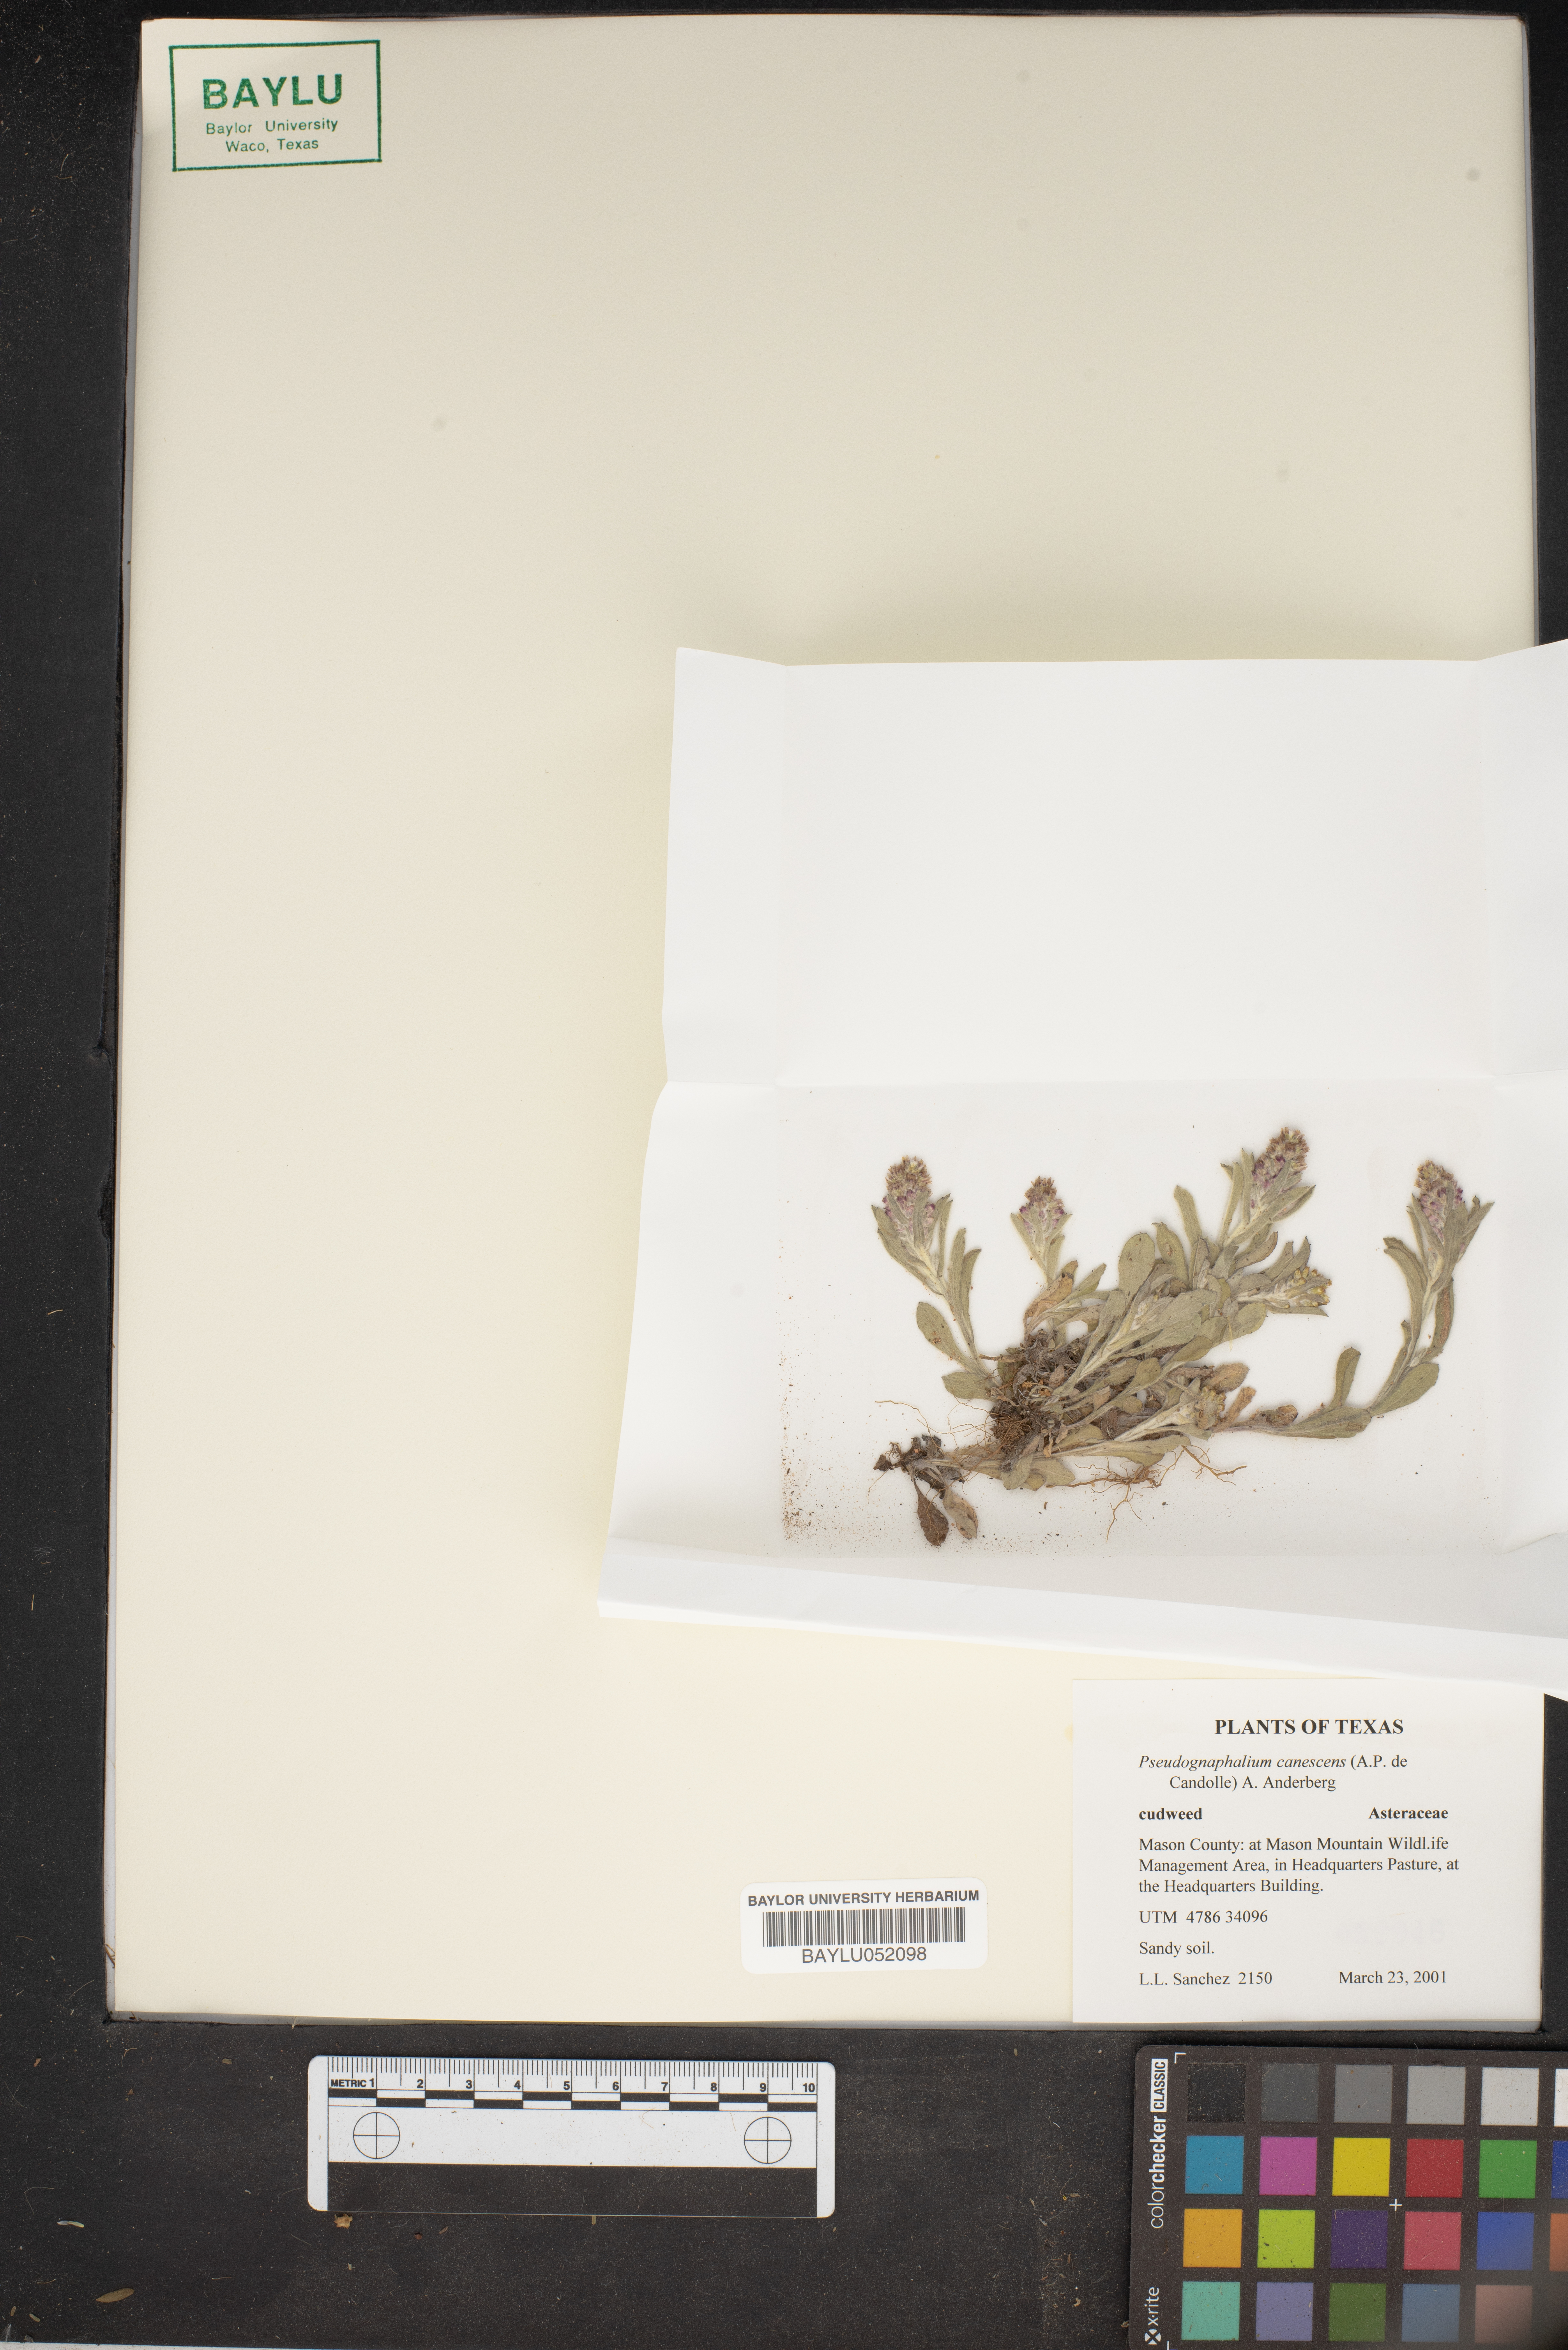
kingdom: Plantae
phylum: Tracheophyta
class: Magnoliopsida
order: Asterales
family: Asteraceae
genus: Pseudognaphalium
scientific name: Pseudognaphalium canescens
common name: Wright's rabbit-tobacco
